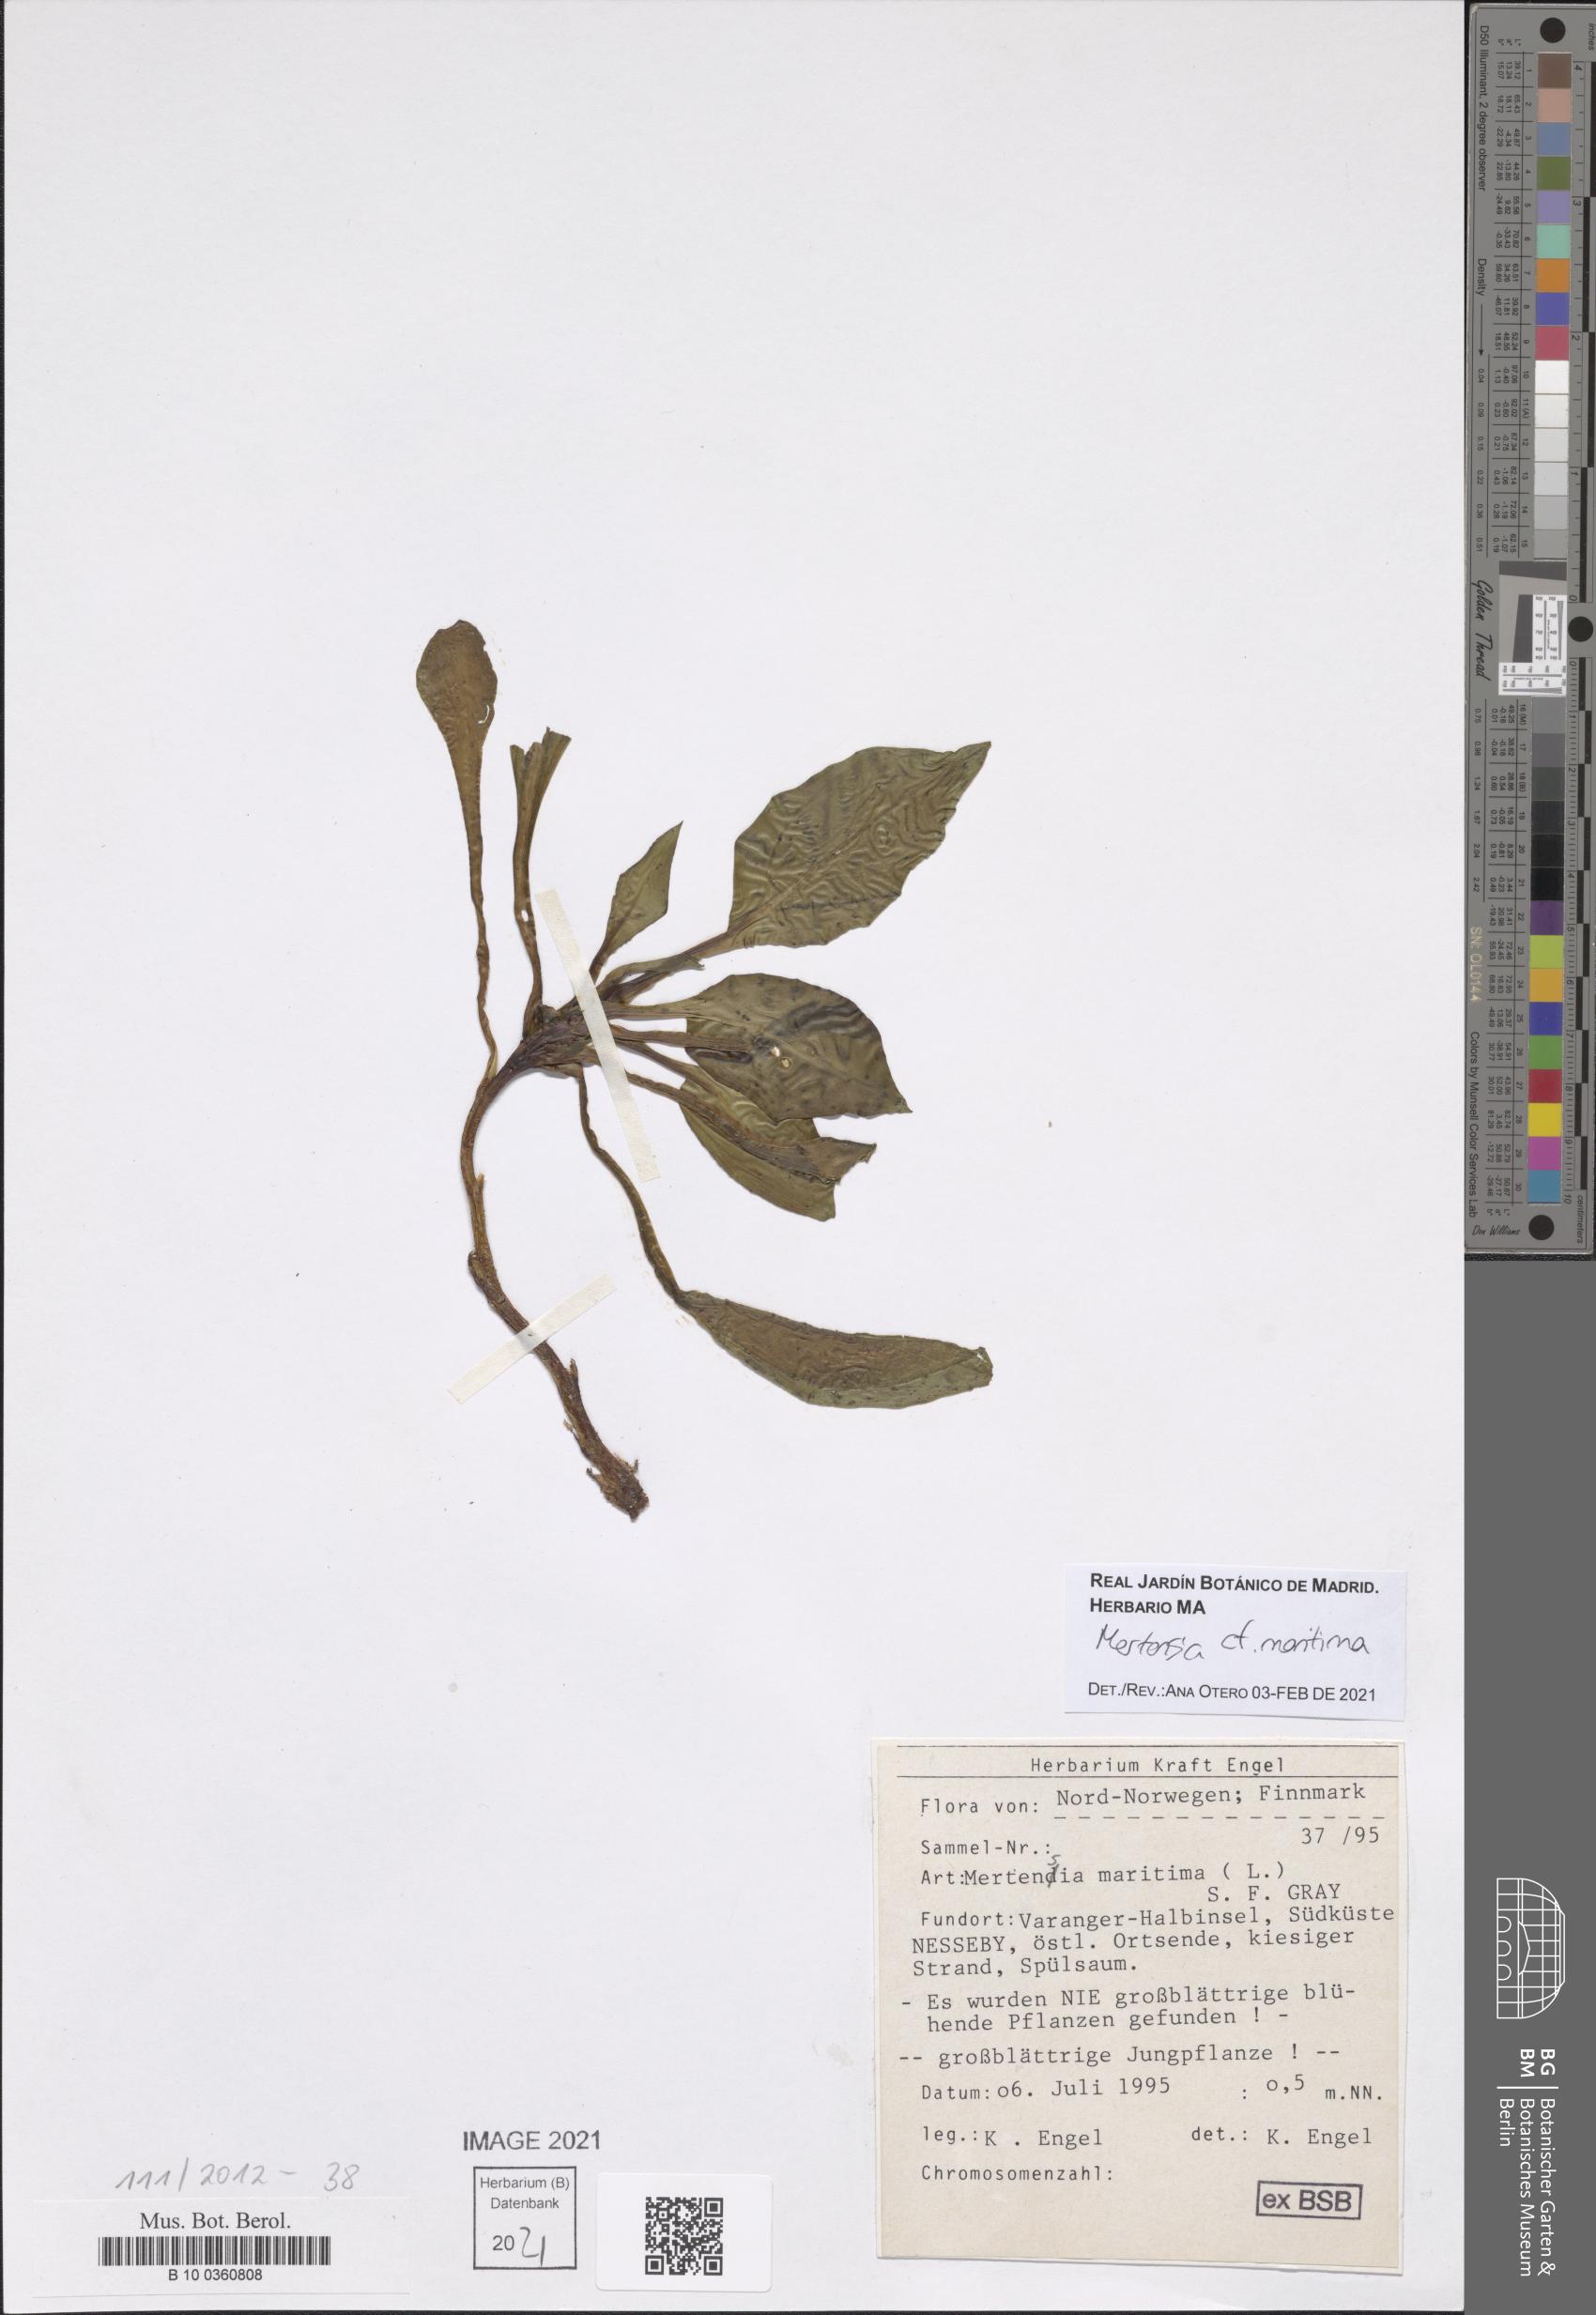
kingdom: Plantae
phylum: Tracheophyta
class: Magnoliopsida
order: Boraginales
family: Boraginaceae
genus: Mertensia
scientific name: Mertensia maritima
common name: Oysterplant
